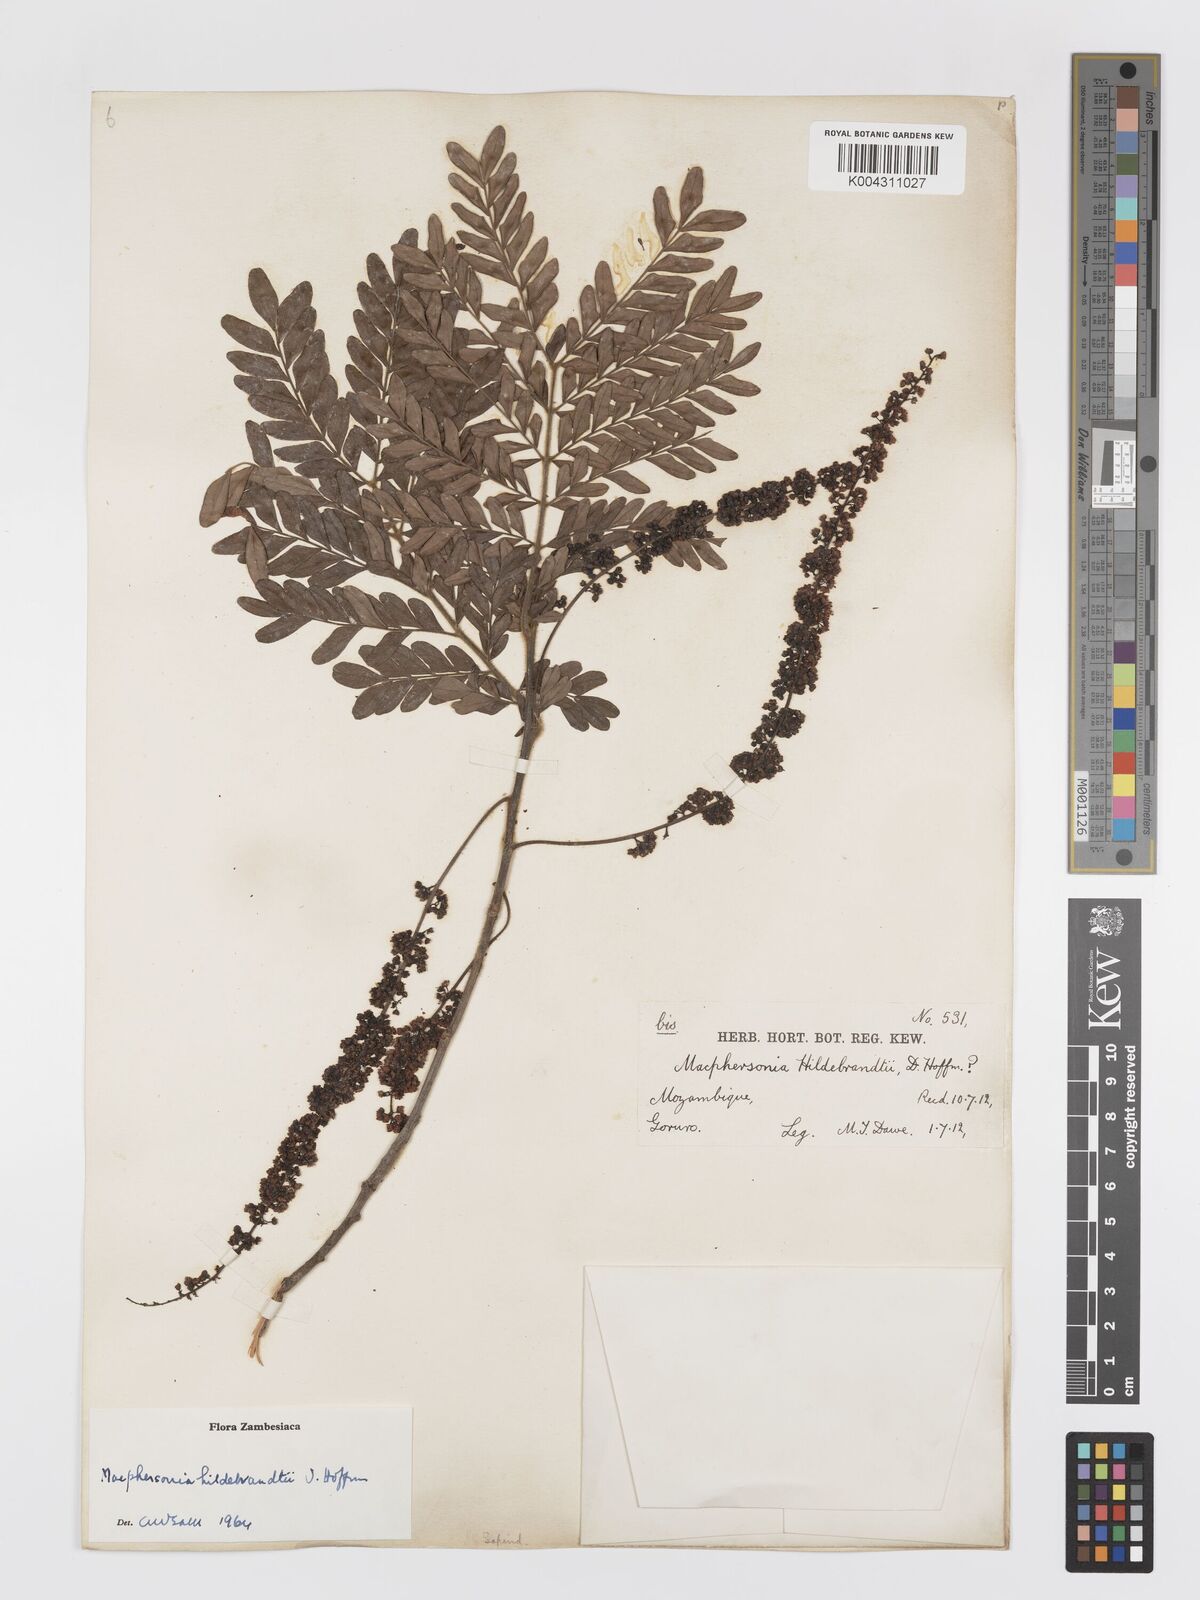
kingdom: Plantae
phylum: Tracheophyta
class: Magnoliopsida
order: Sapindales
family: Sapindaceae
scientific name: Sapindaceae
